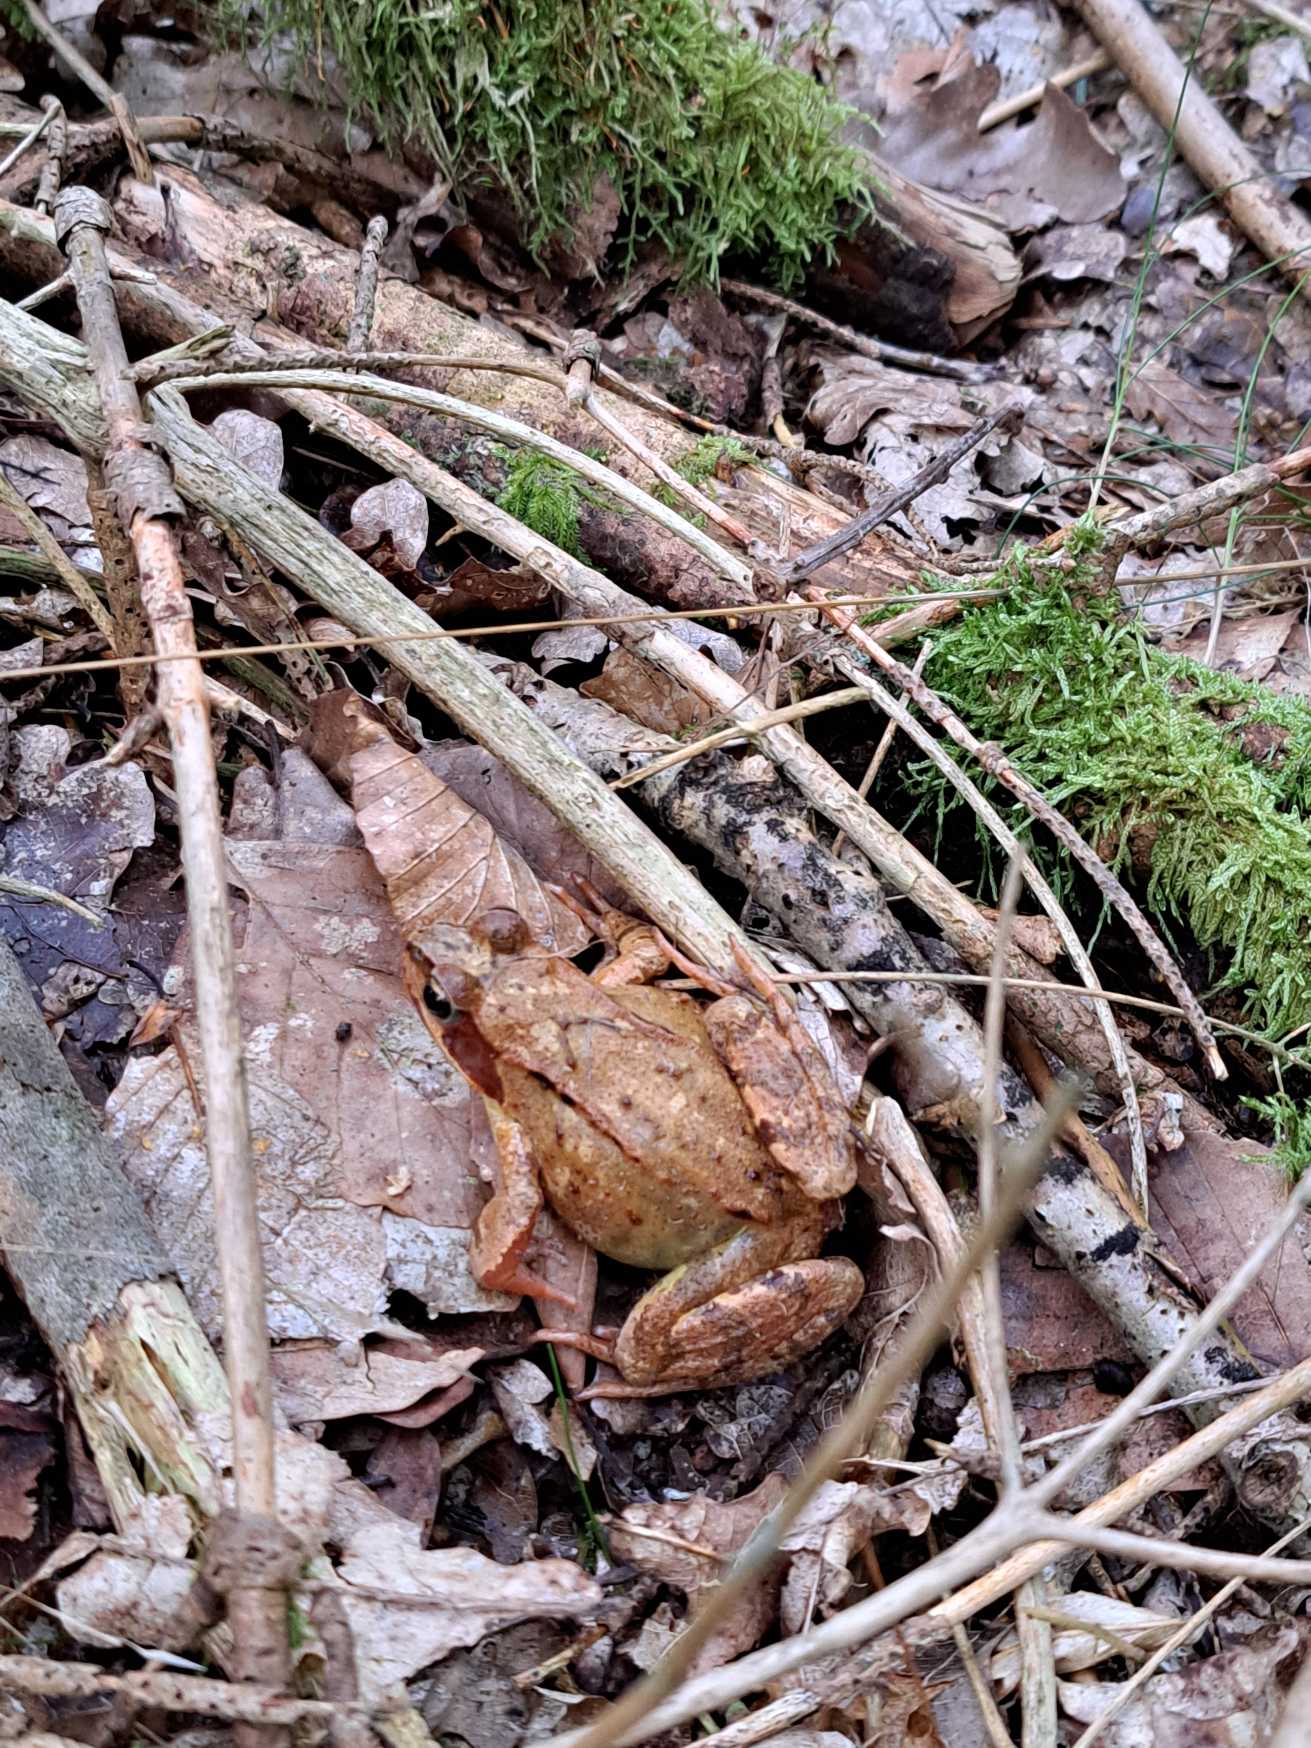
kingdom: Animalia
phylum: Chordata
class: Amphibia
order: Anura
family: Ranidae
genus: Rana
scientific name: Rana temporaria
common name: Butsnudet frø
